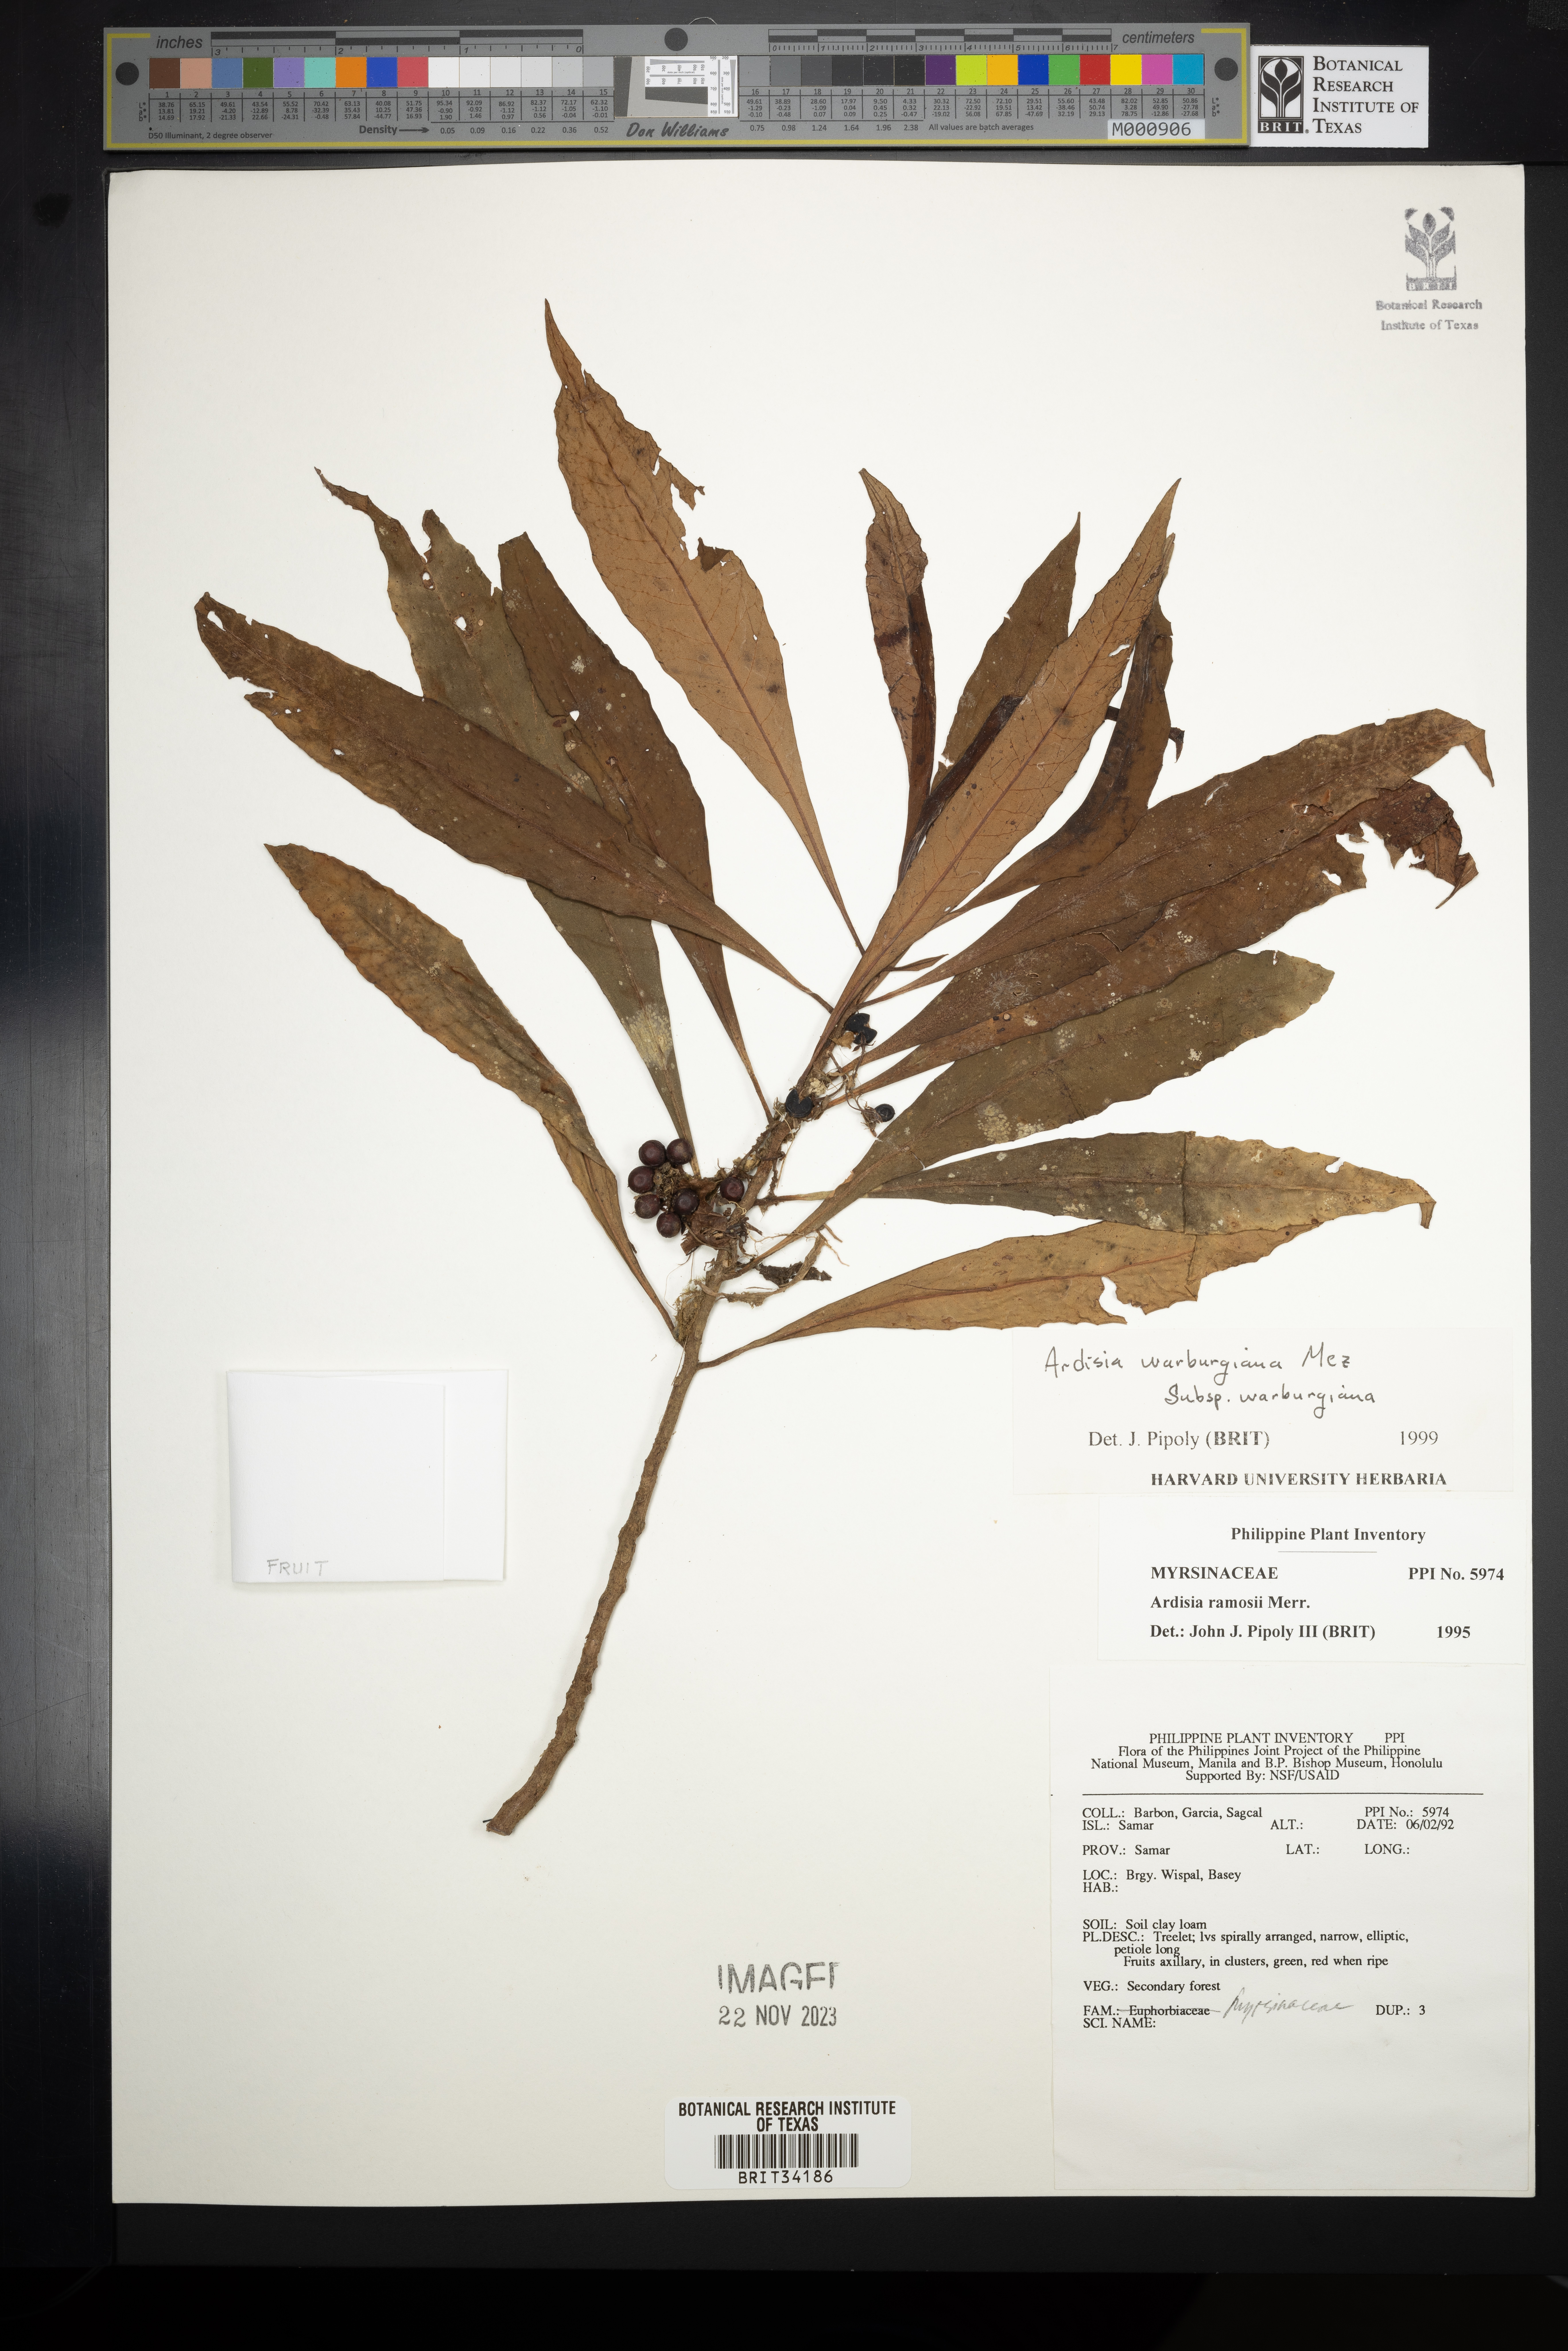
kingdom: Plantae
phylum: Tracheophyta
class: Magnoliopsida
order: Ericales
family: Primulaceae
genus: Ardisia
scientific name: Ardisia warburgiana
